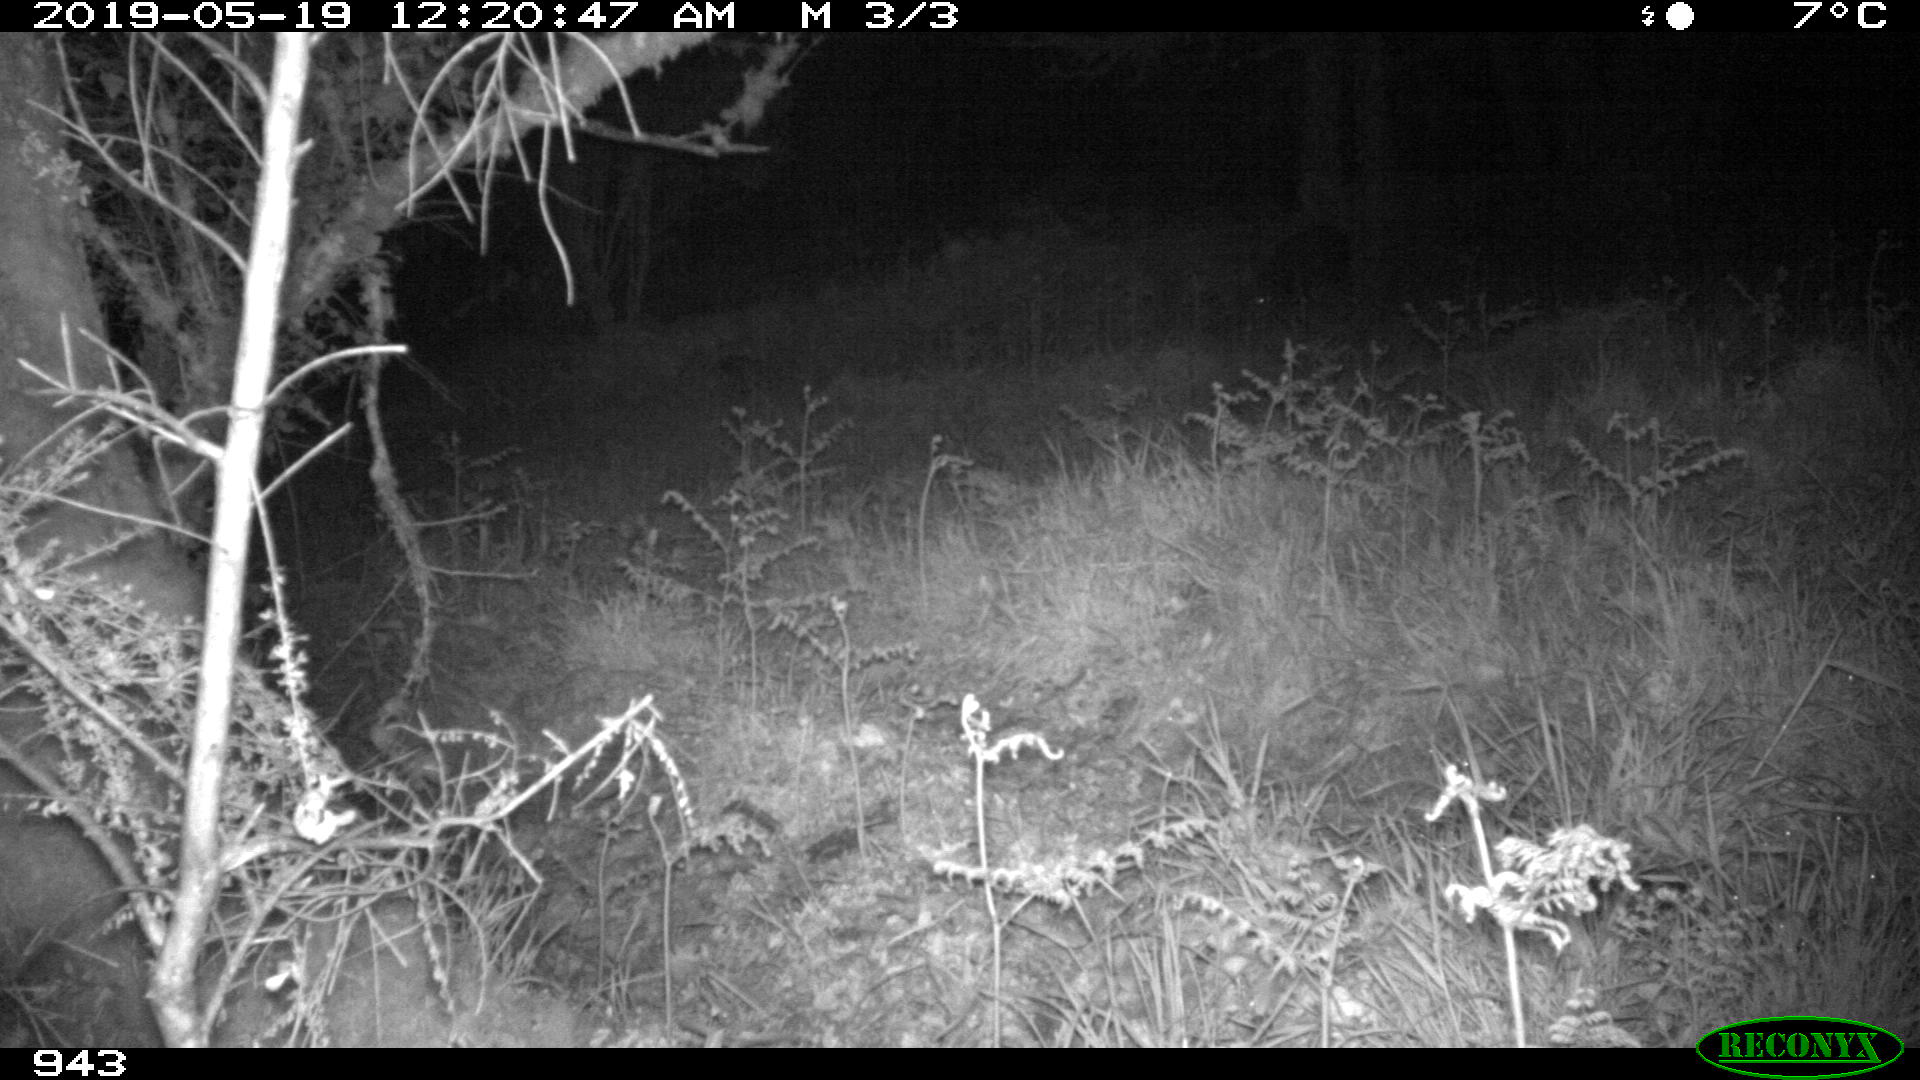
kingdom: Animalia
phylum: Chordata
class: Mammalia
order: Artiodactyla
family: Suidae
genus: Sus
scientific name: Sus scrofa
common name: Wild boar
